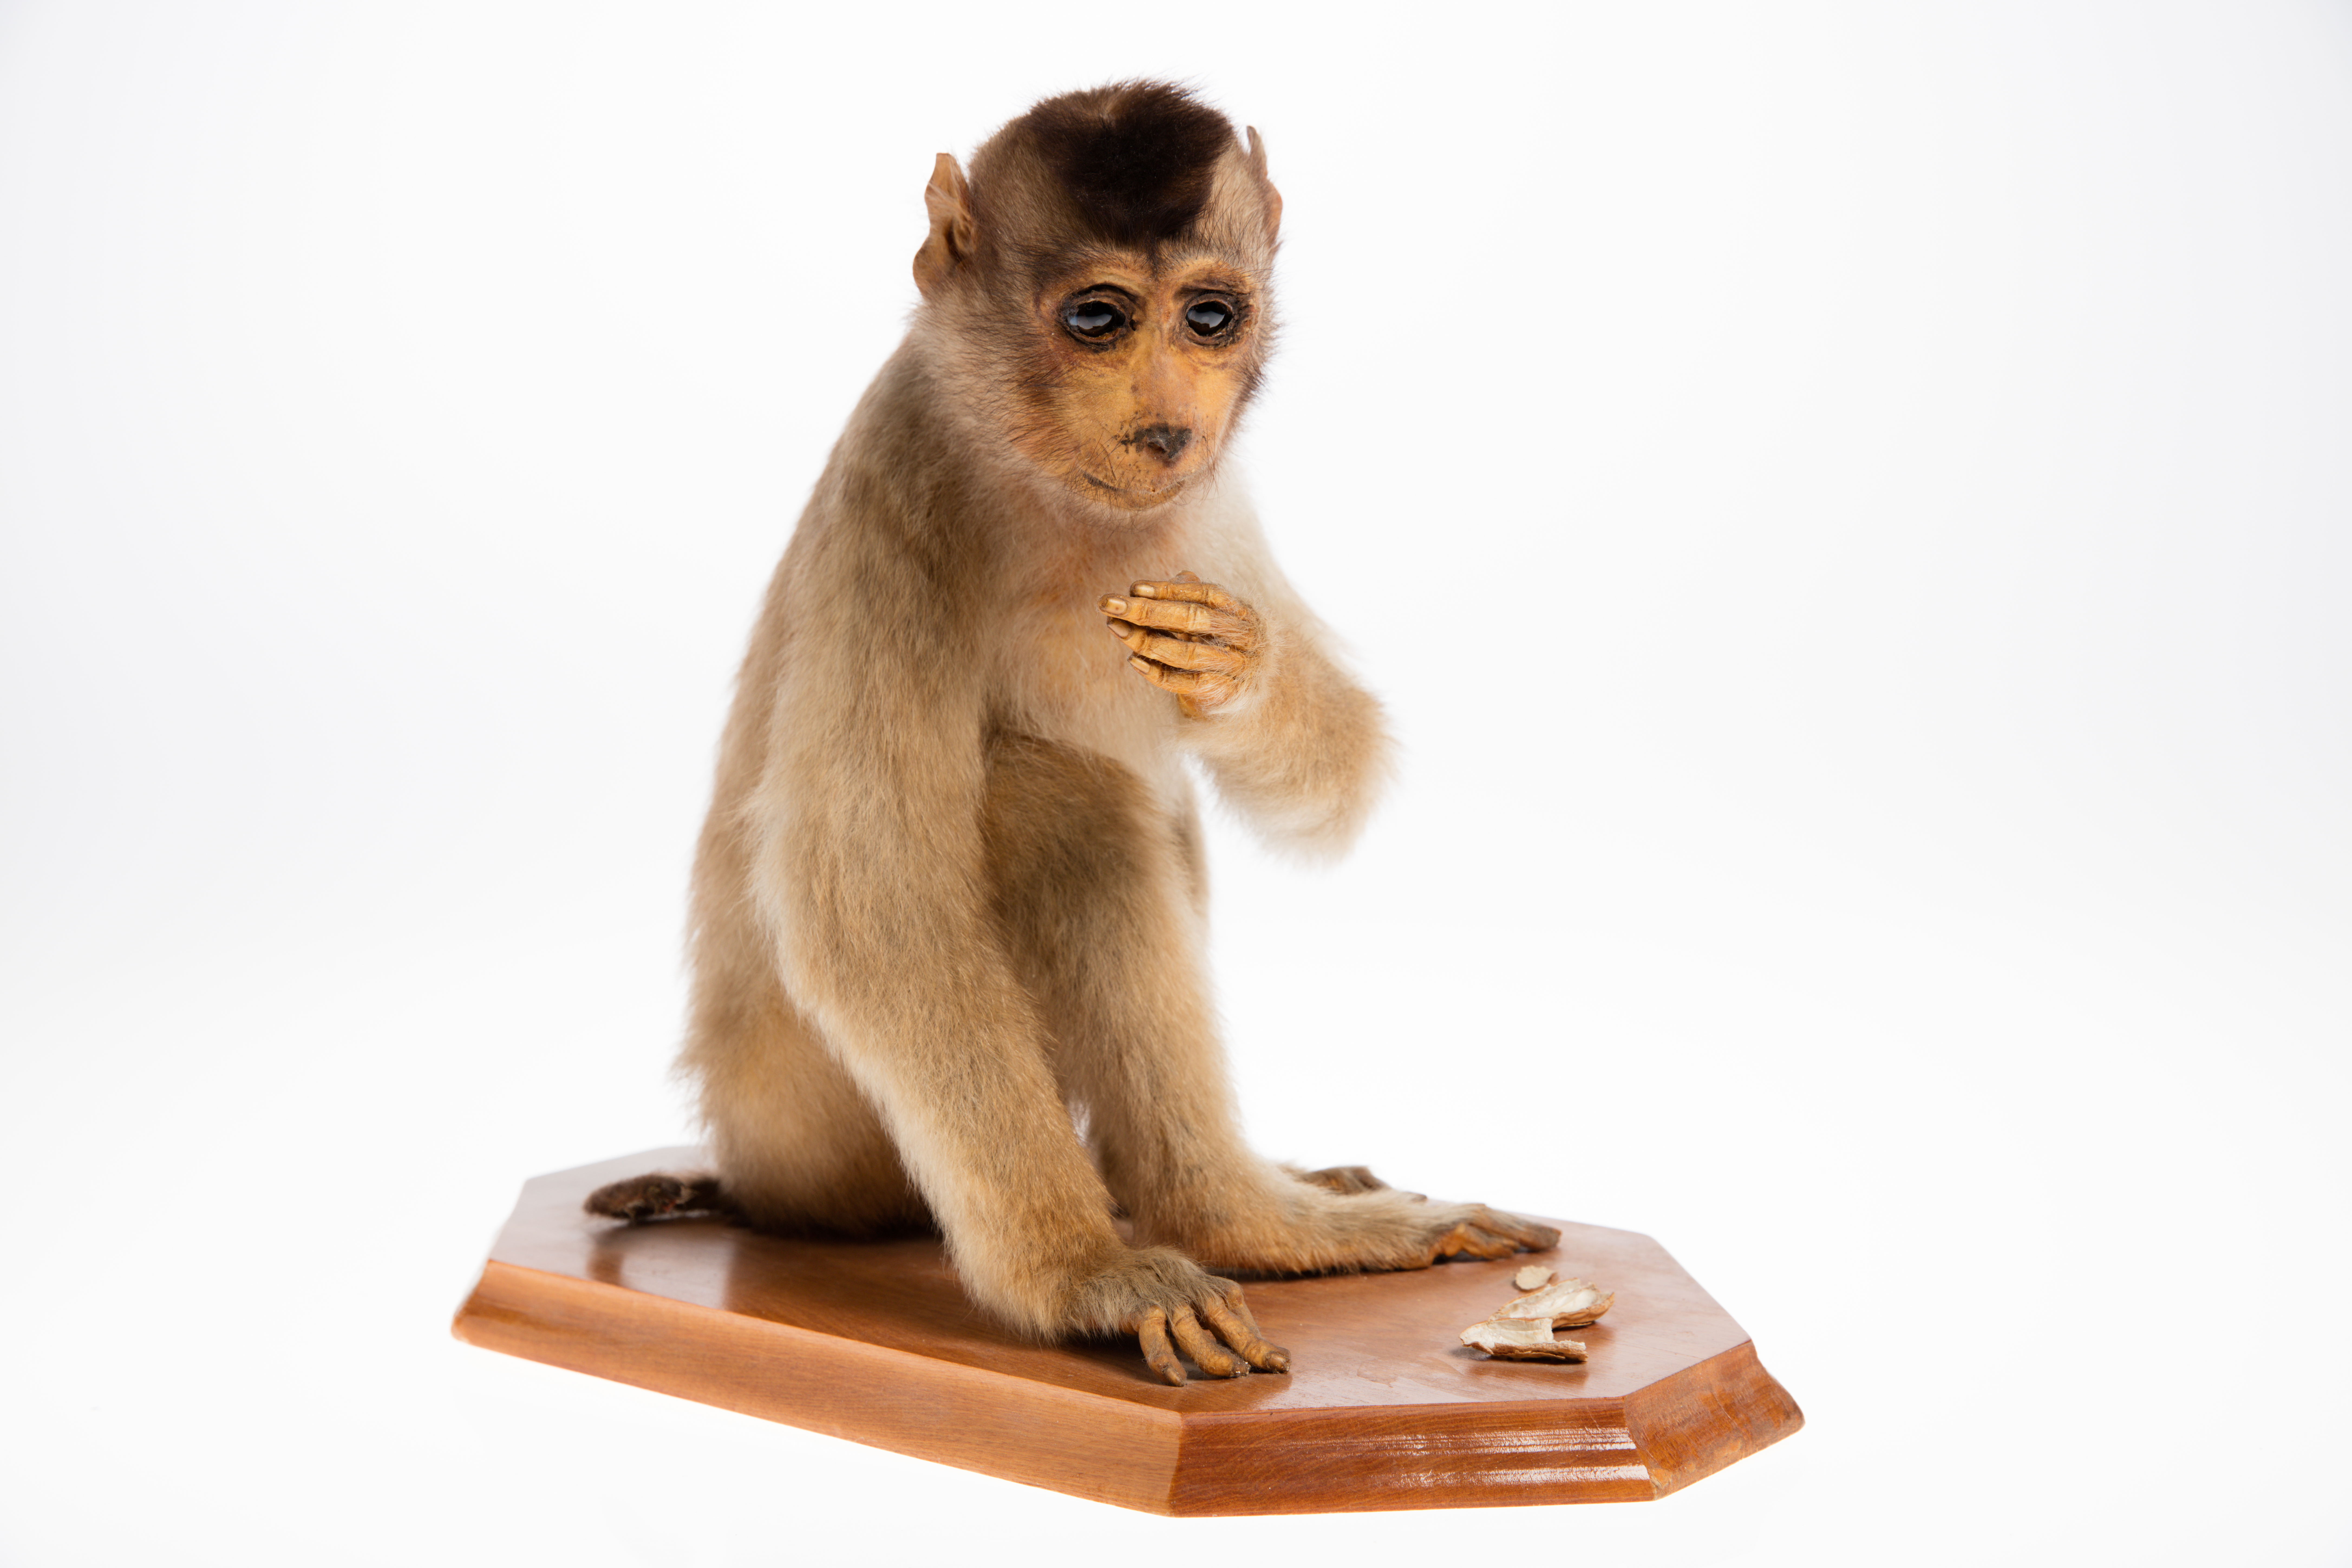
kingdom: Animalia
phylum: Chordata
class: Mammalia
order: Primates
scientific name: Primates
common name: Primates
